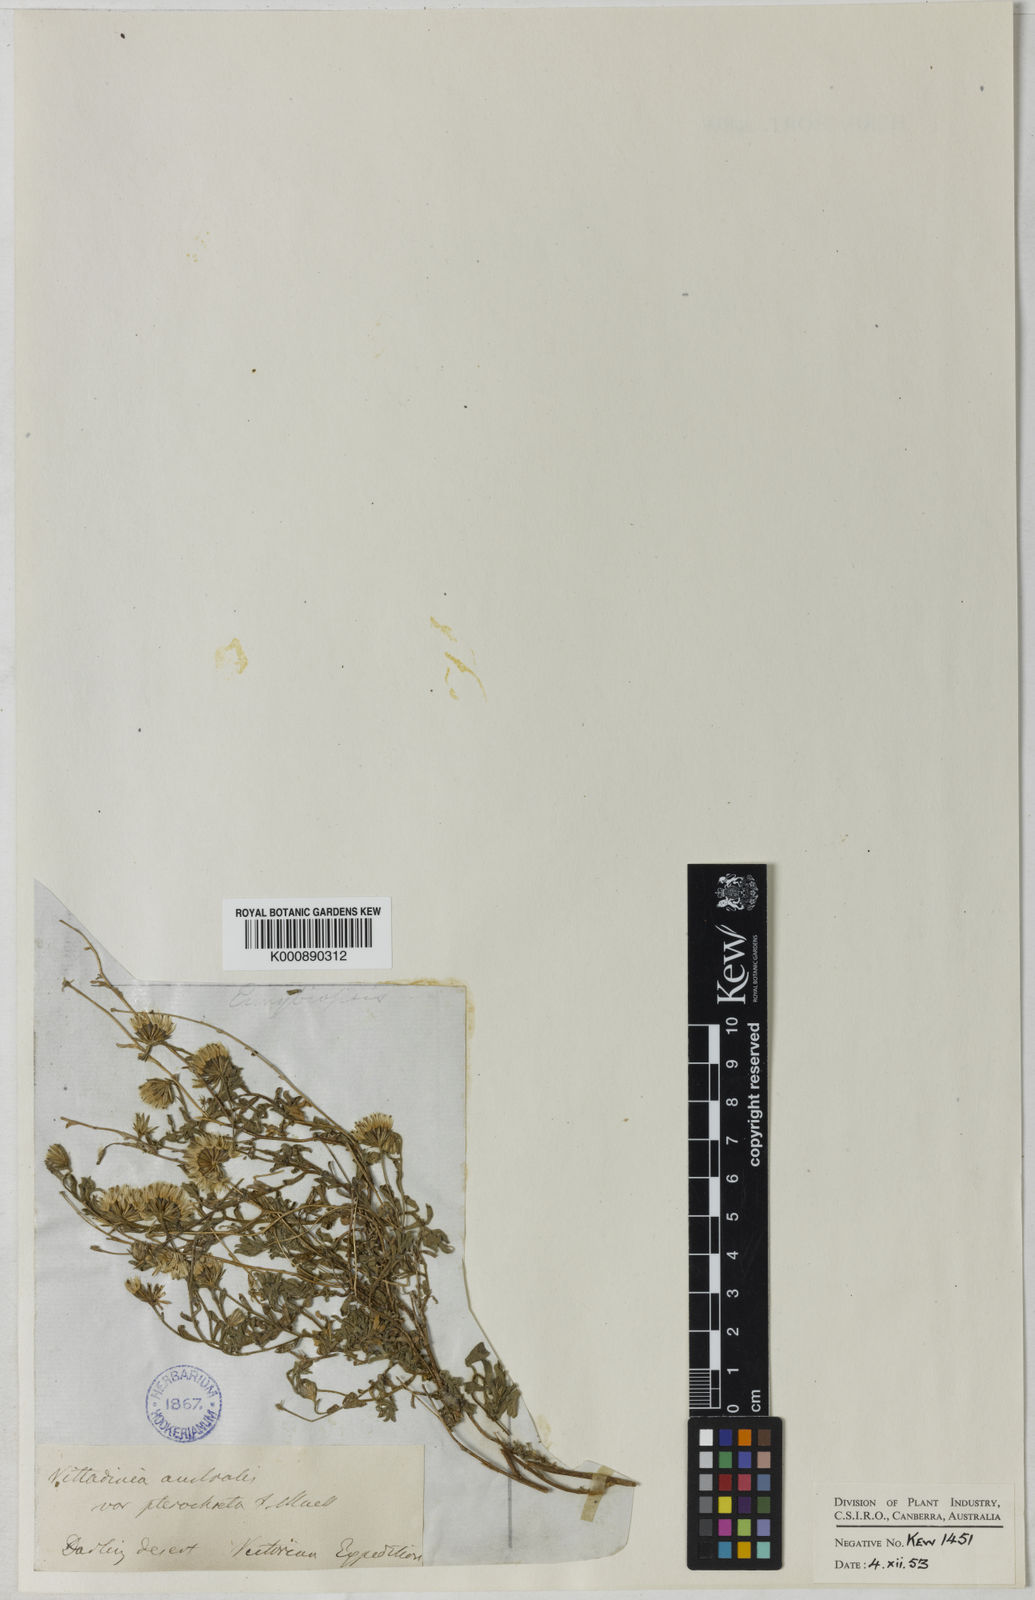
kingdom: Plantae
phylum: Tracheophyta
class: Magnoliopsida
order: Asterales
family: Asteraceae
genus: Vittadinia
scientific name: Vittadinia pterochaeta
